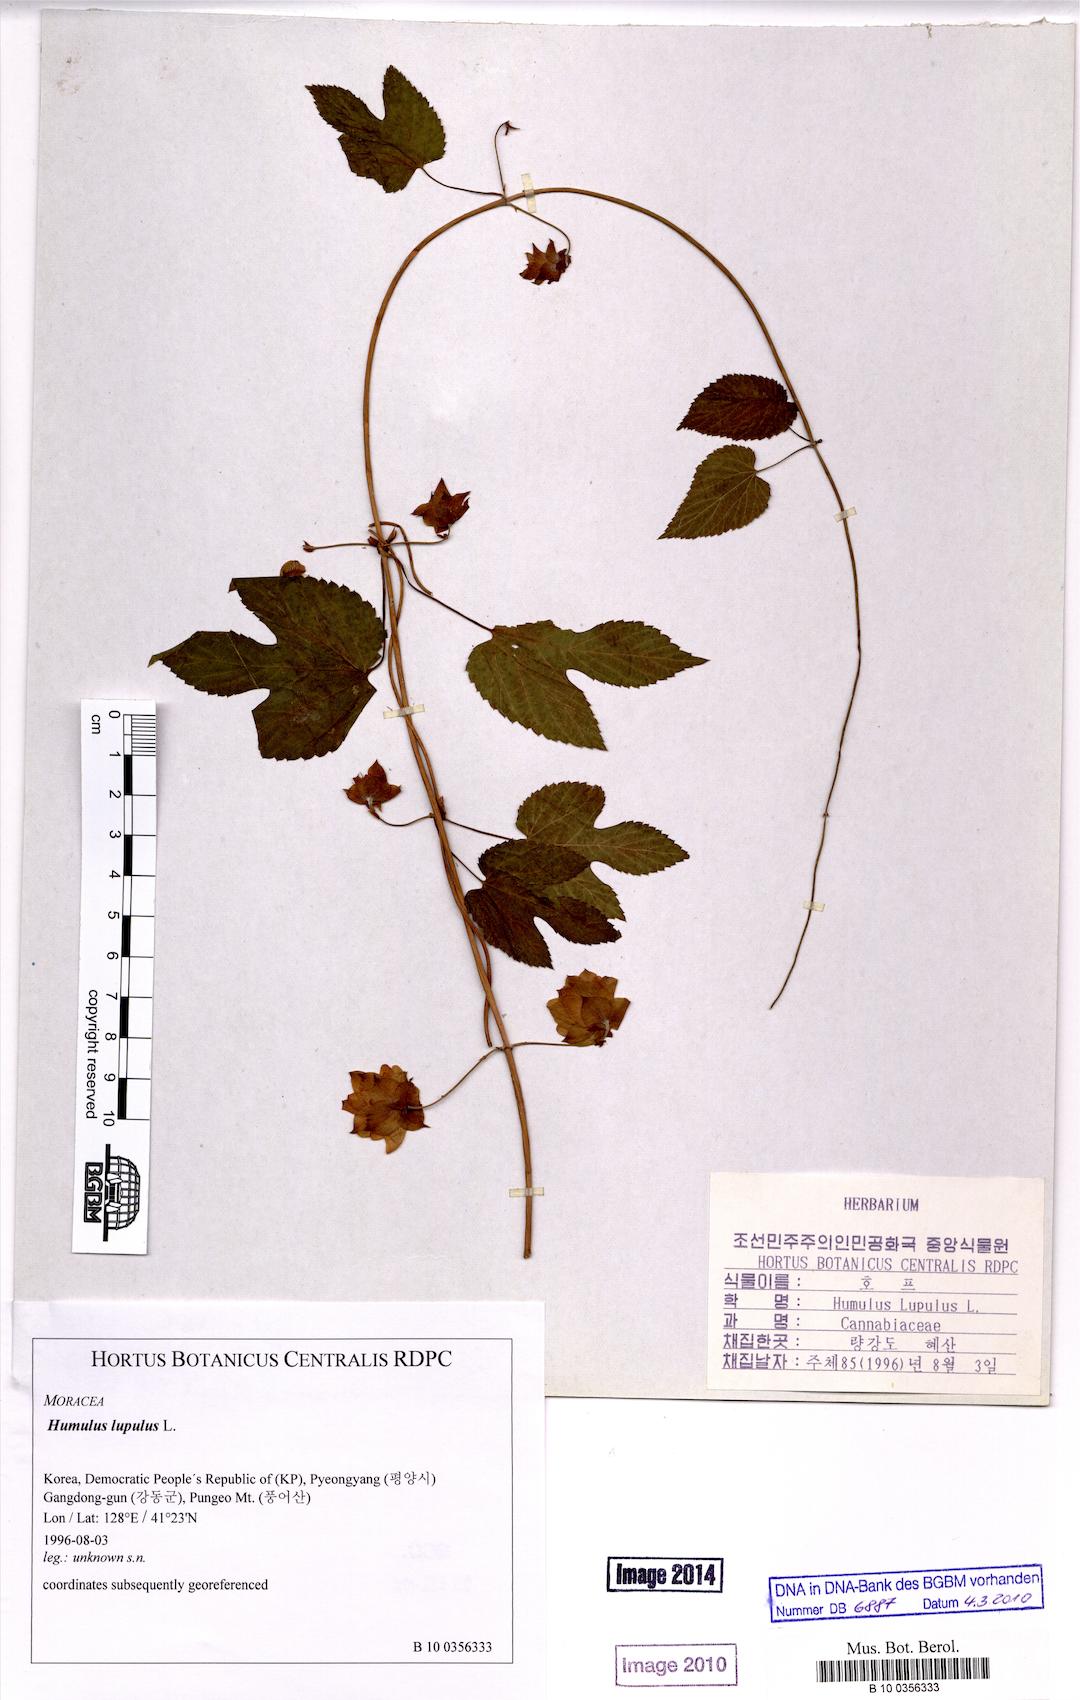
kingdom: Plantae
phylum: Tracheophyta
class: Magnoliopsida
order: Rosales
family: Cannabaceae
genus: Humulus
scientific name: Humulus lupulus
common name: Hop
